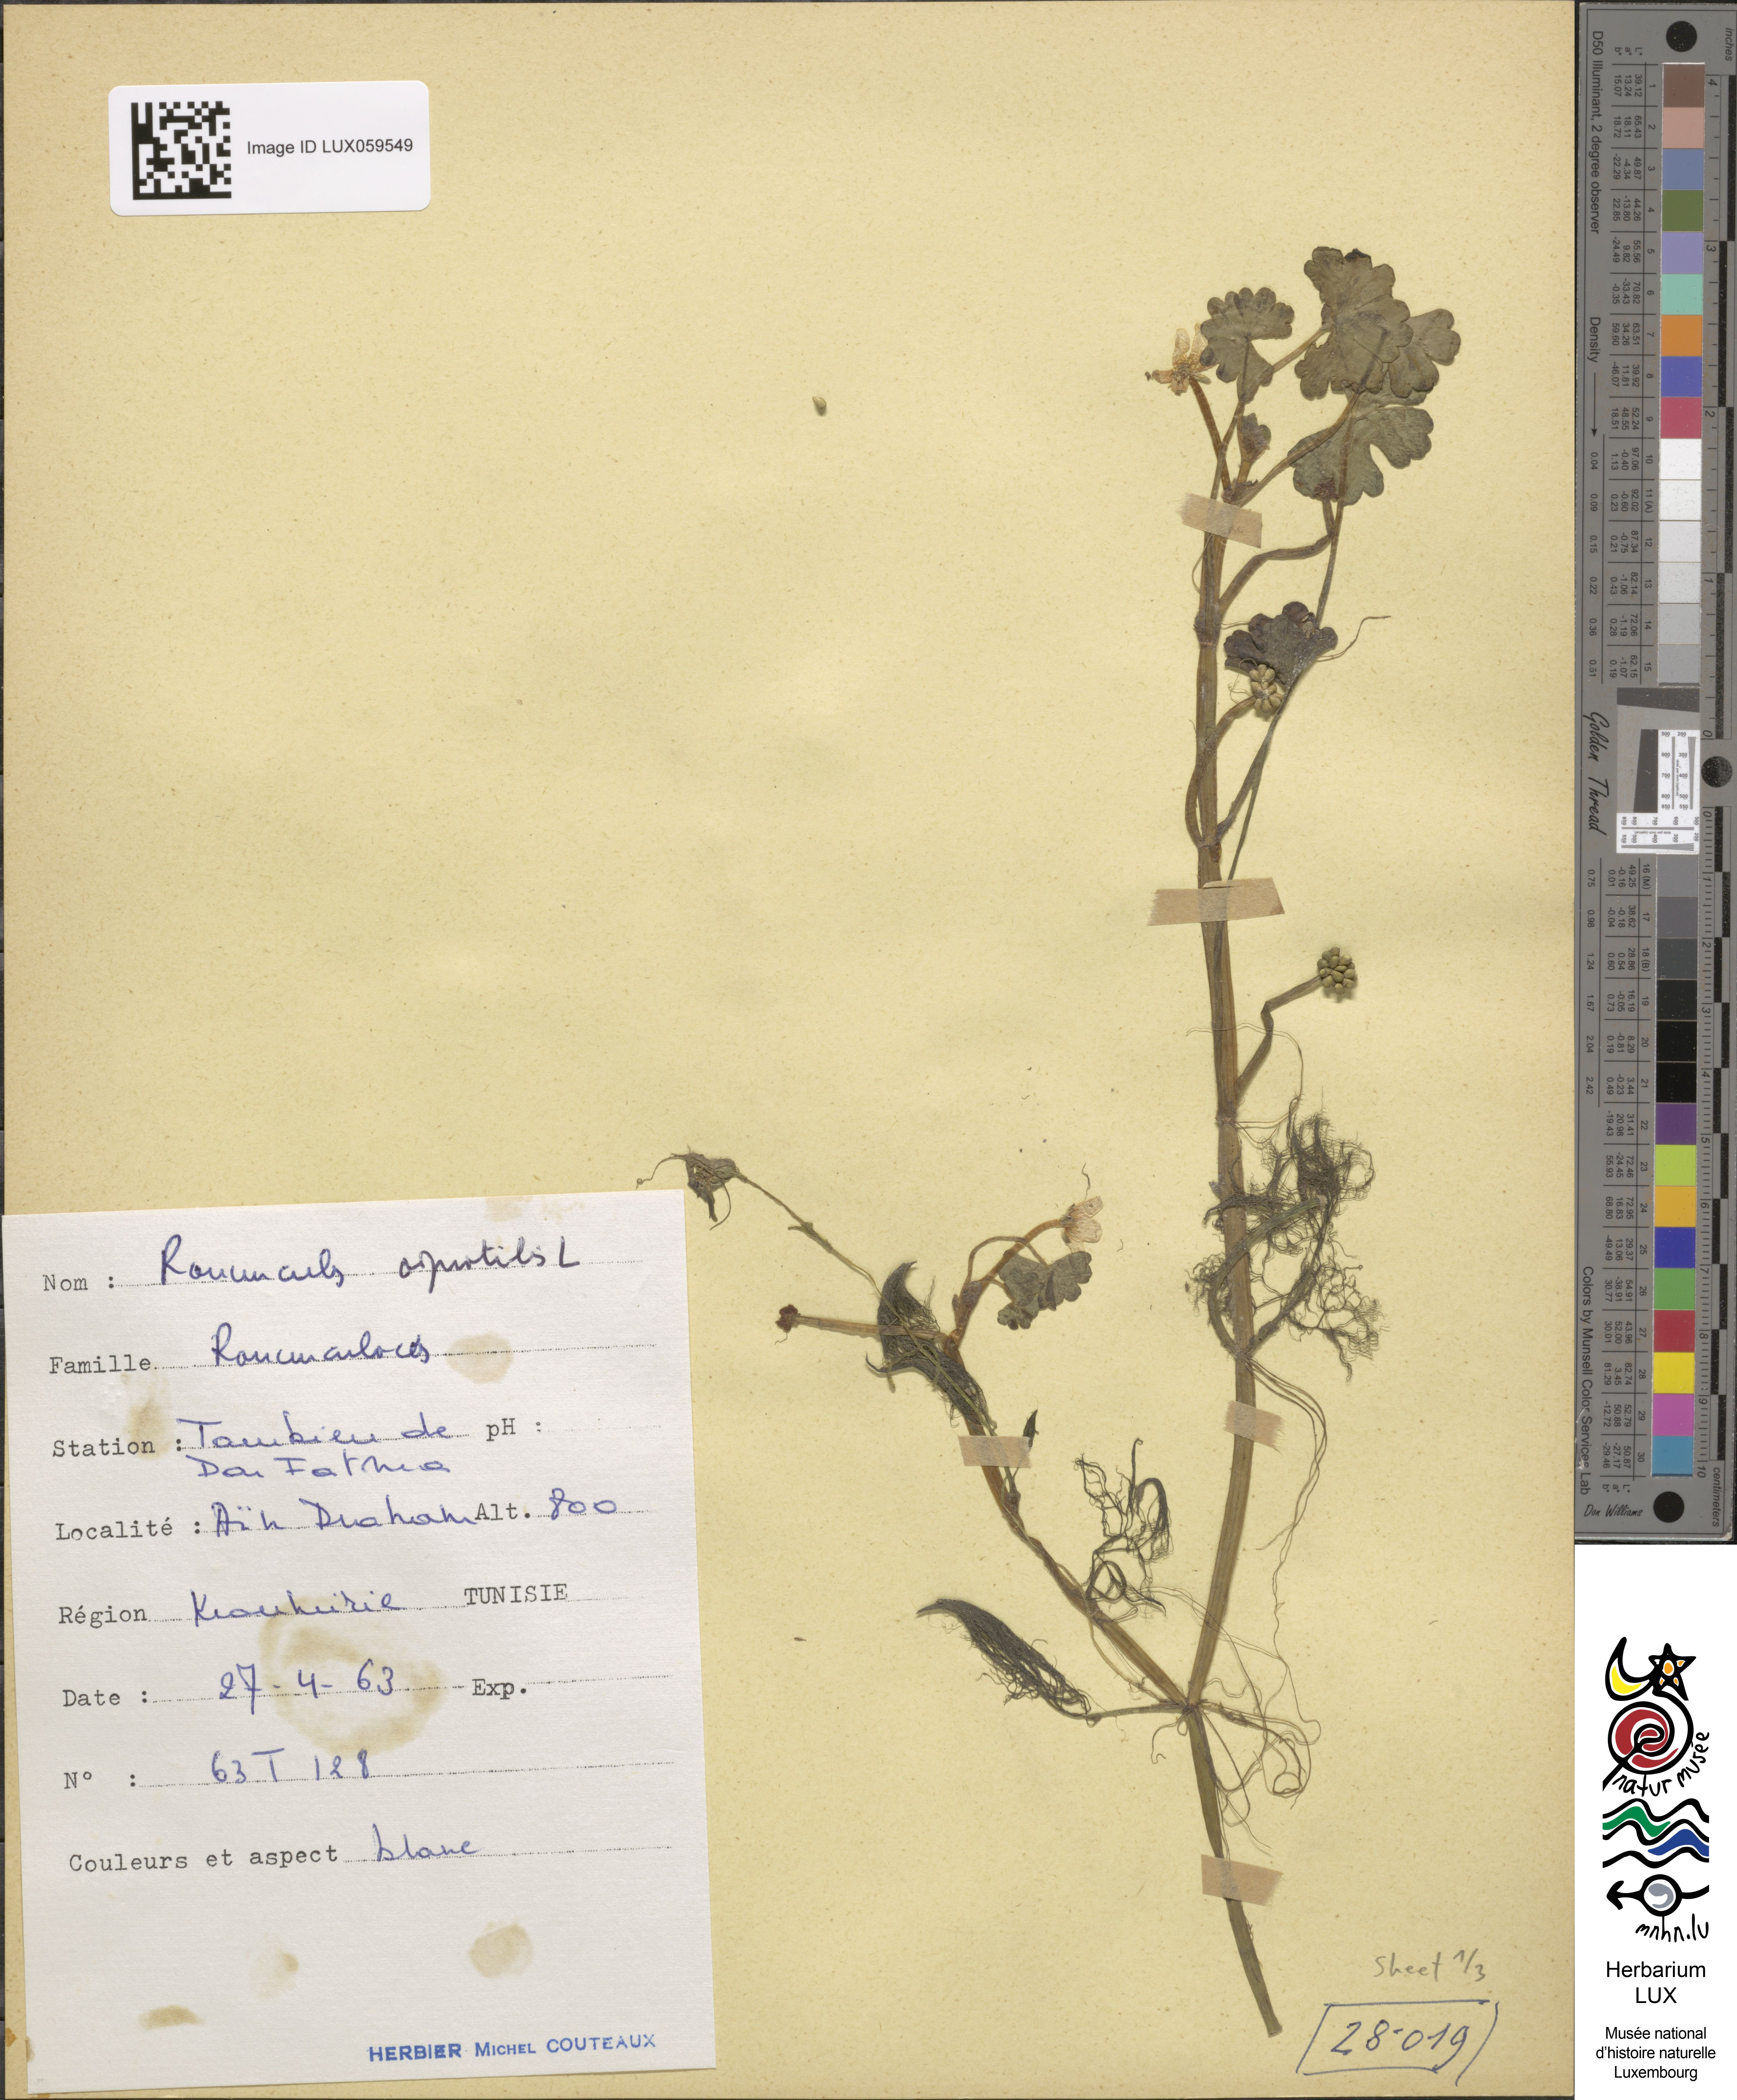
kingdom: Plantae
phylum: Tracheophyta
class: Magnoliopsida
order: Ranunculales
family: Ranunculaceae
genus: Ranunculus
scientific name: Ranunculus aquatilis
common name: Common water-crowfoot
